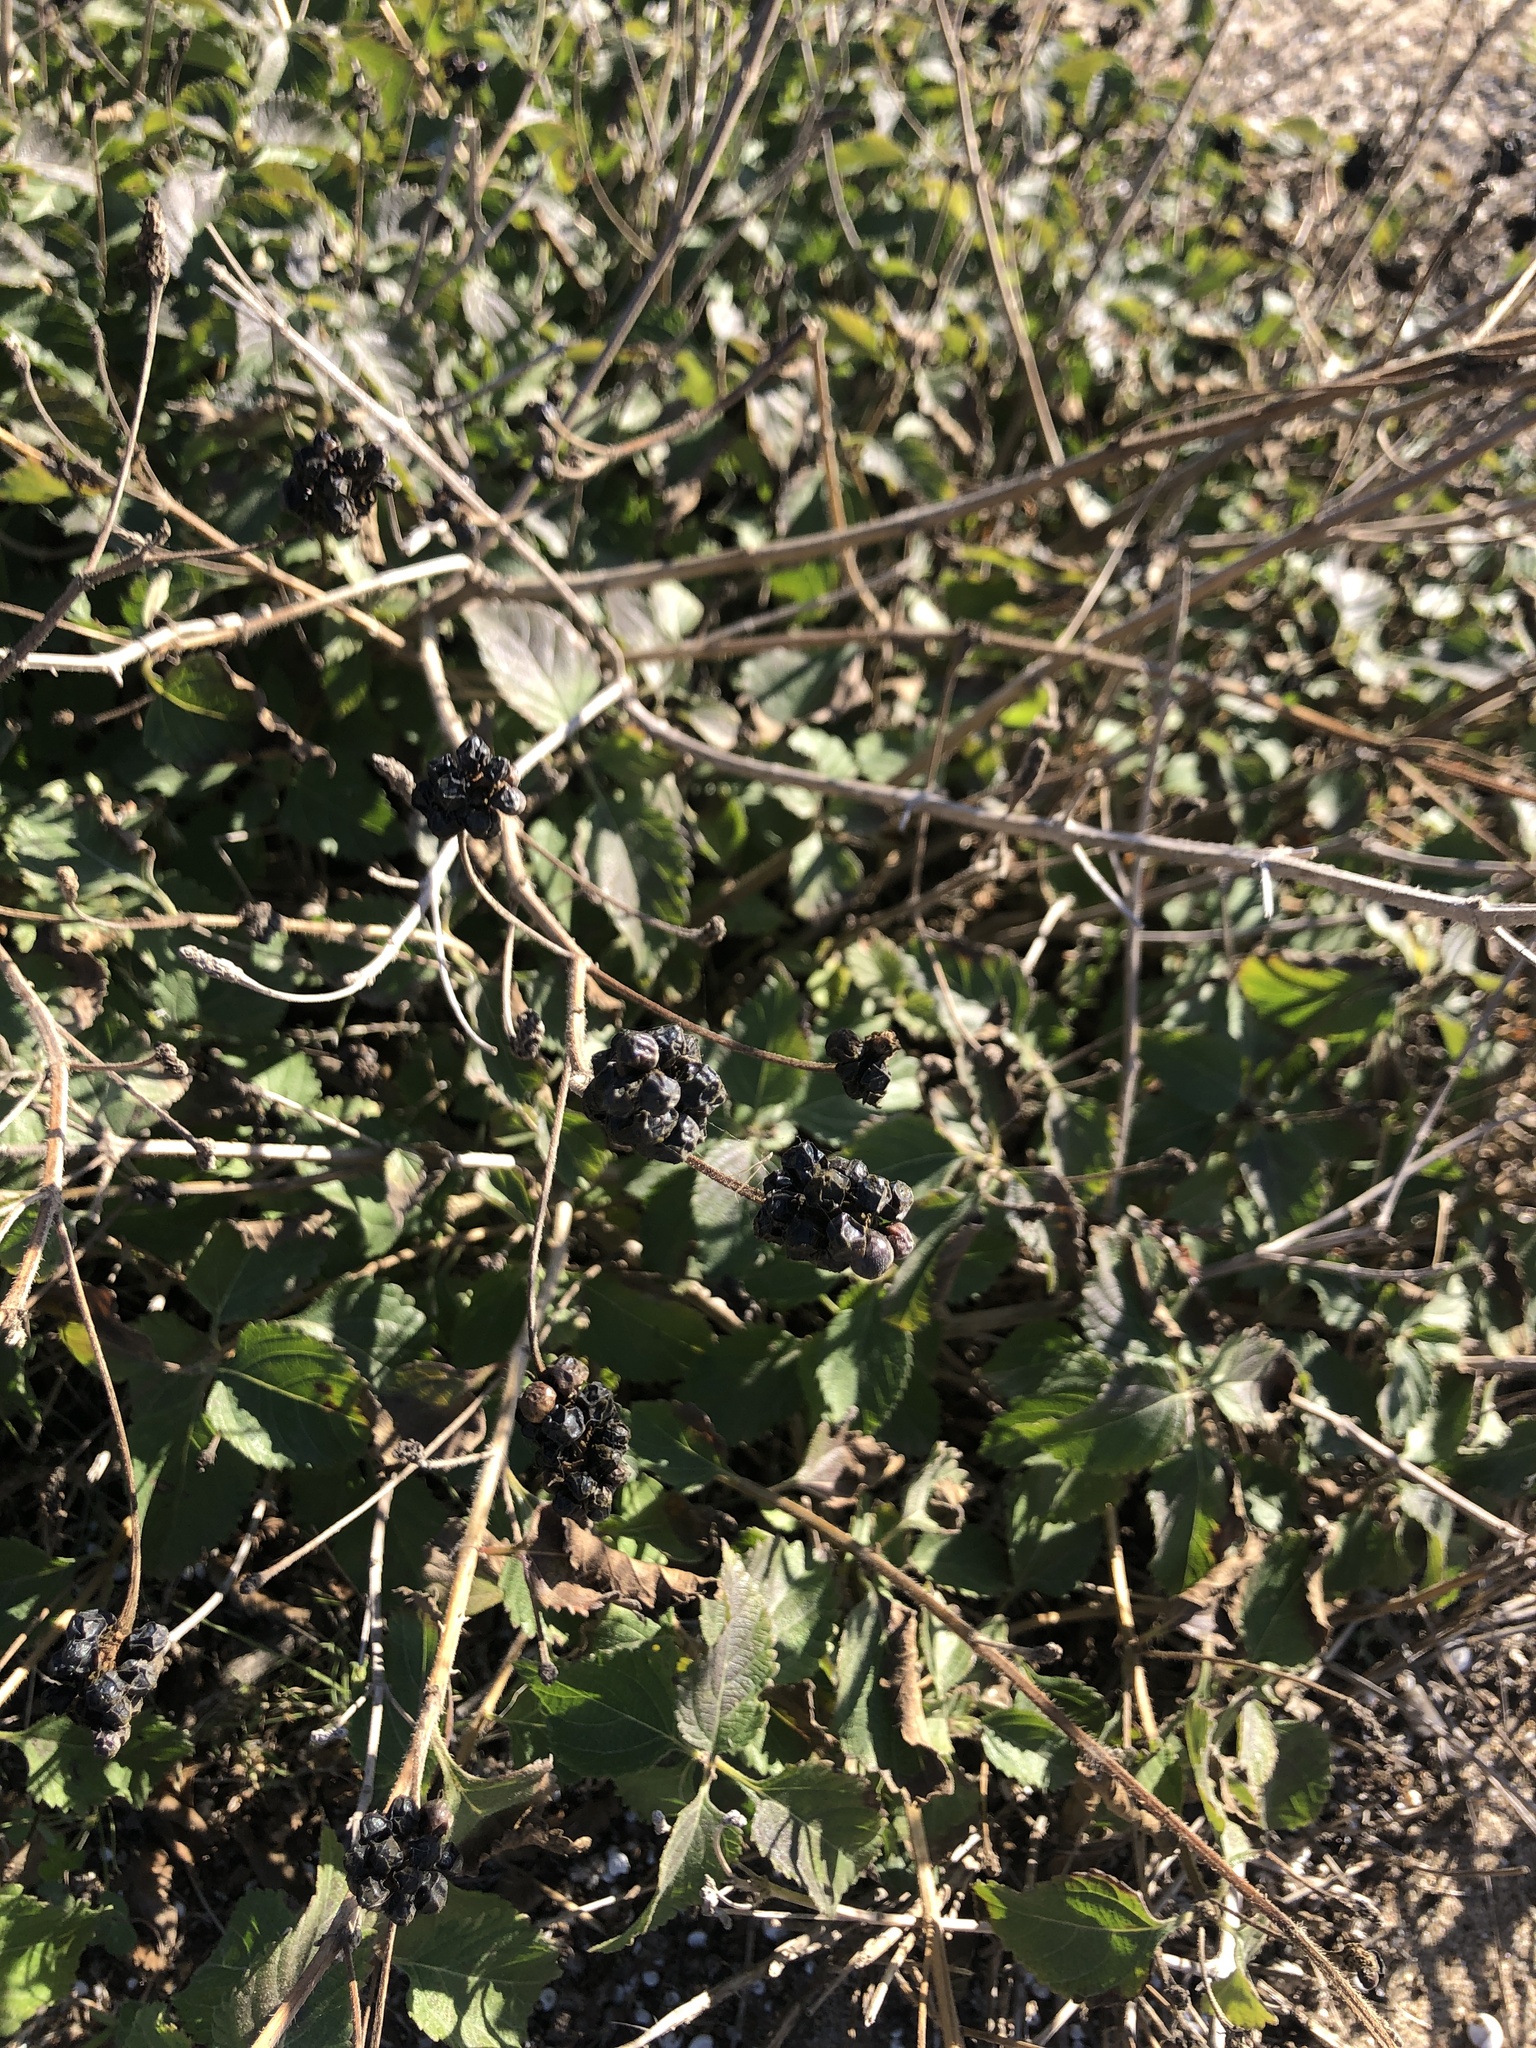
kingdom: Plantae
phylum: Tracheophyta
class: Magnoliopsida
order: Lamiales
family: Verbenaceae
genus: Lantana
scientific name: Lantana camara
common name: Lantana
